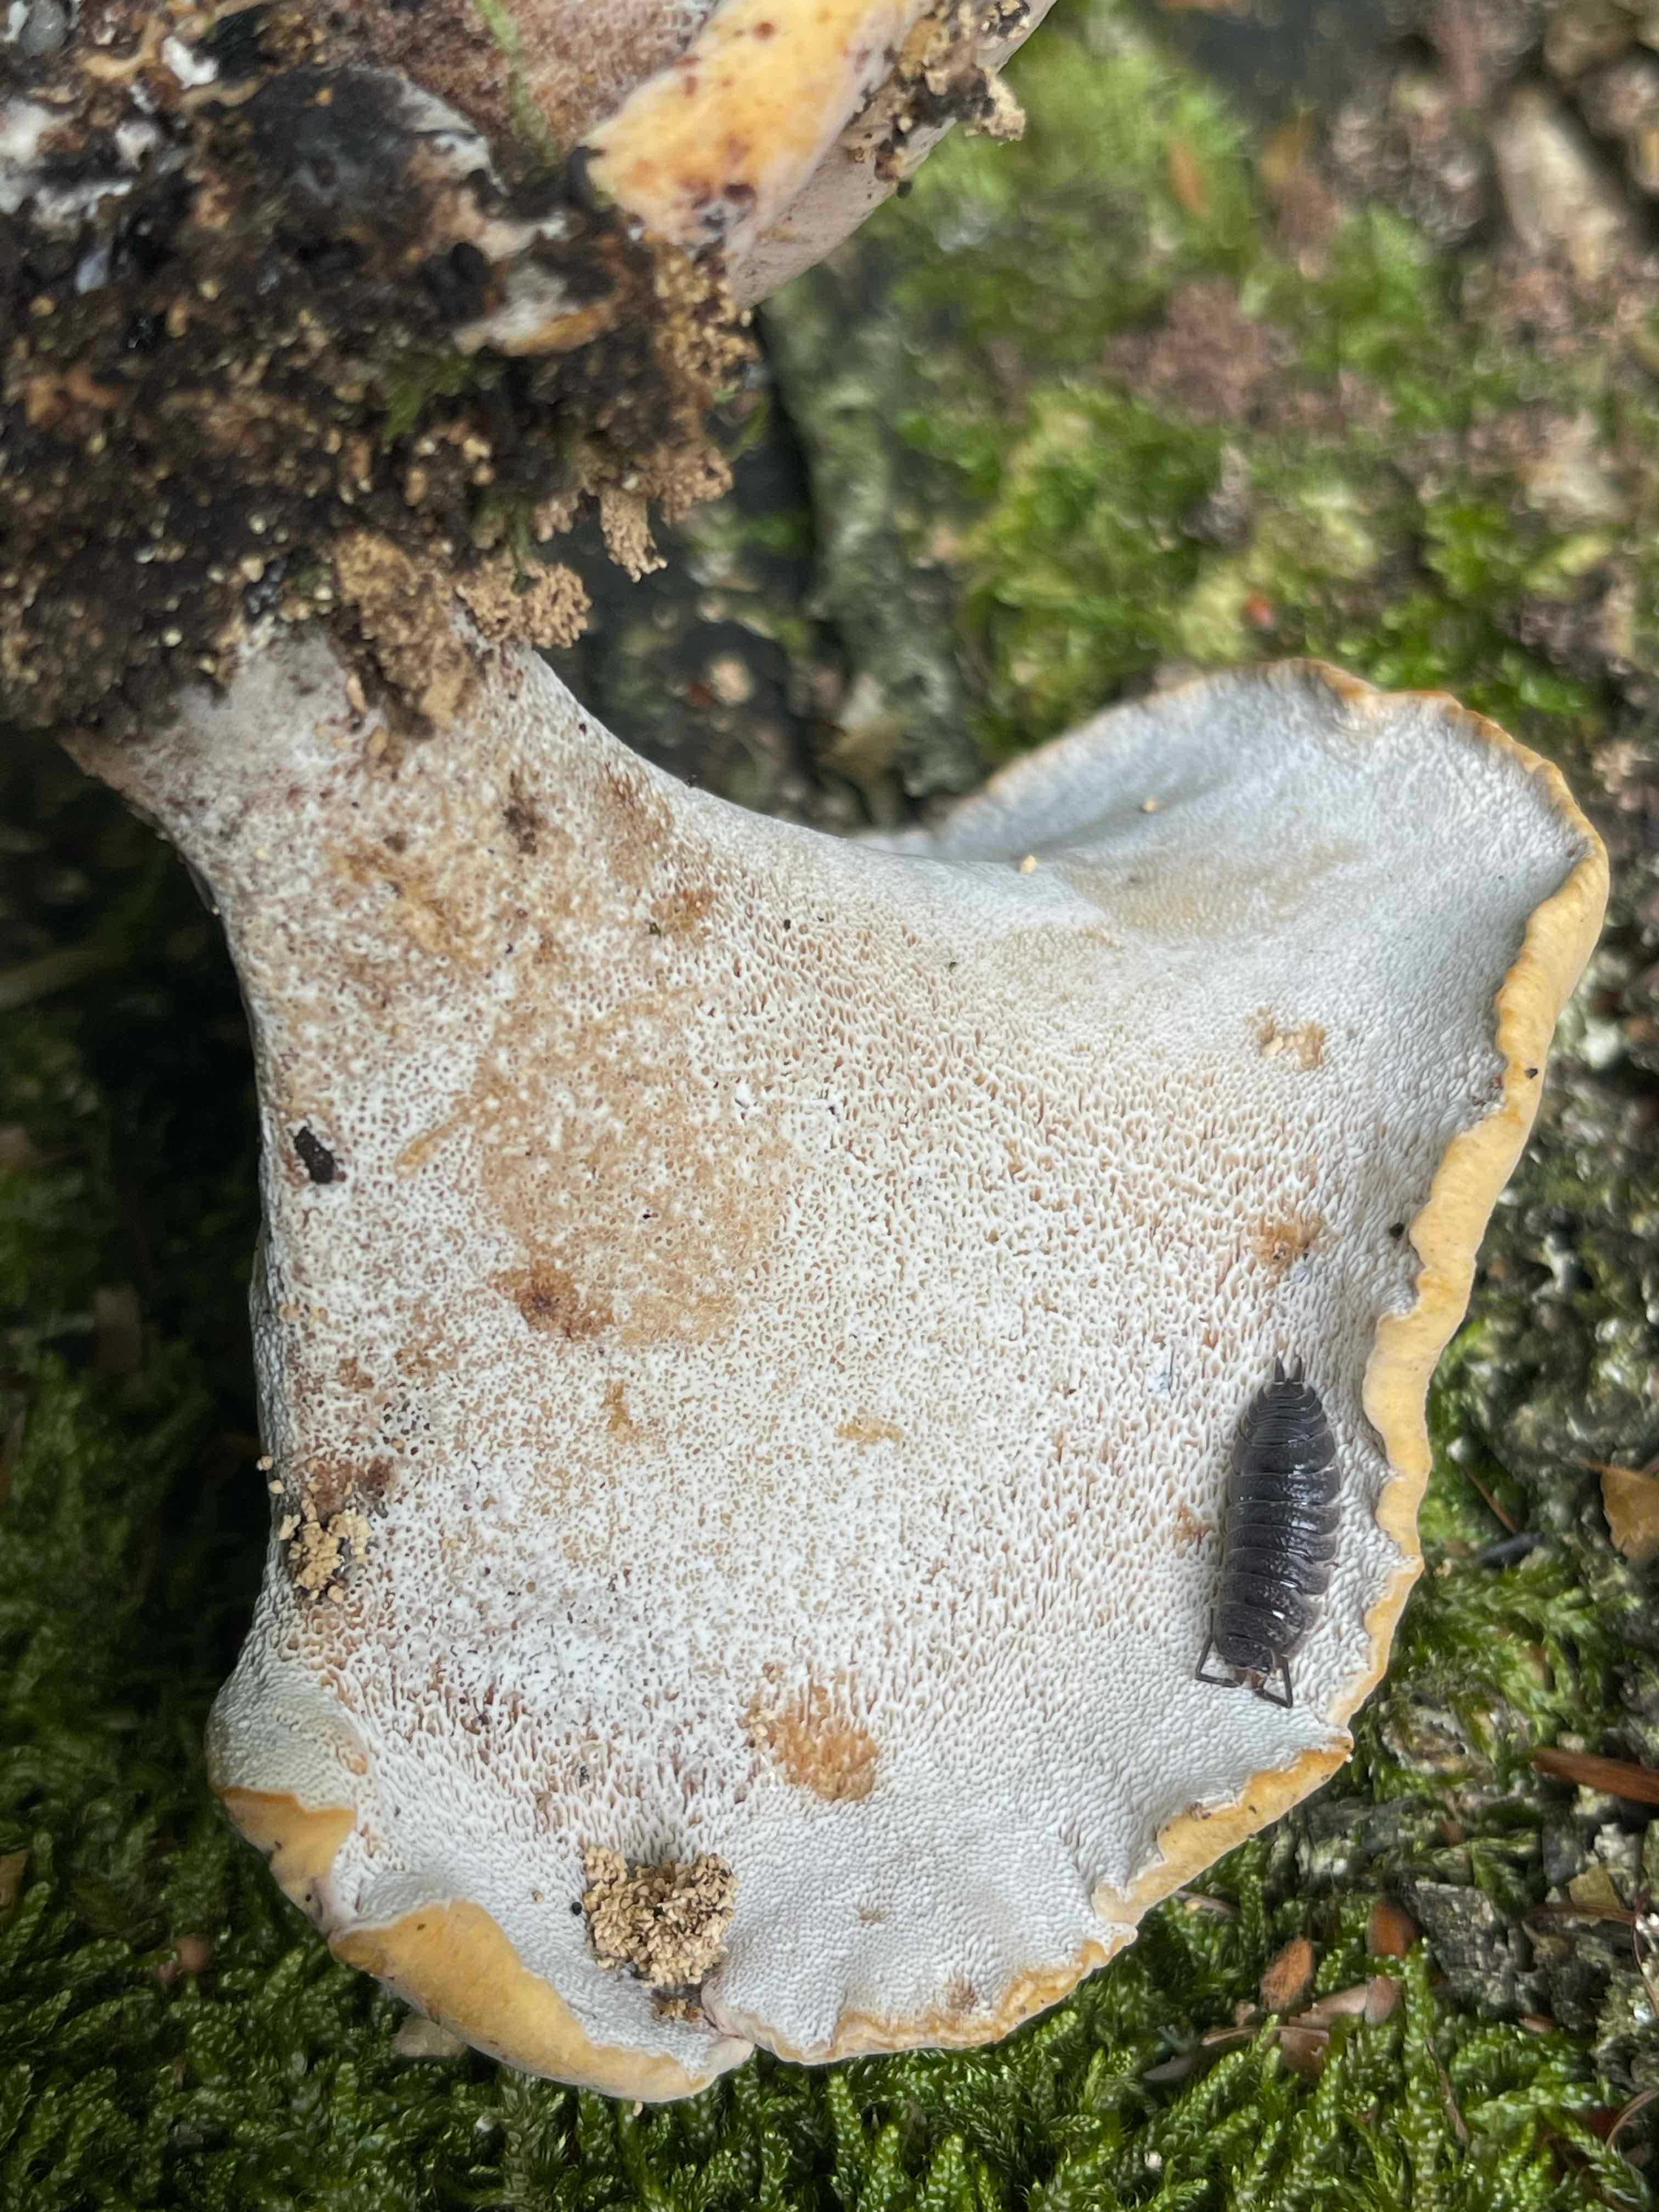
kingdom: Fungi
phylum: Basidiomycota
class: Agaricomycetes
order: Polyporales
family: Polyporaceae
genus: Cerioporus
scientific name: Cerioporus varius
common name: foranderlig stilkporesvamp
